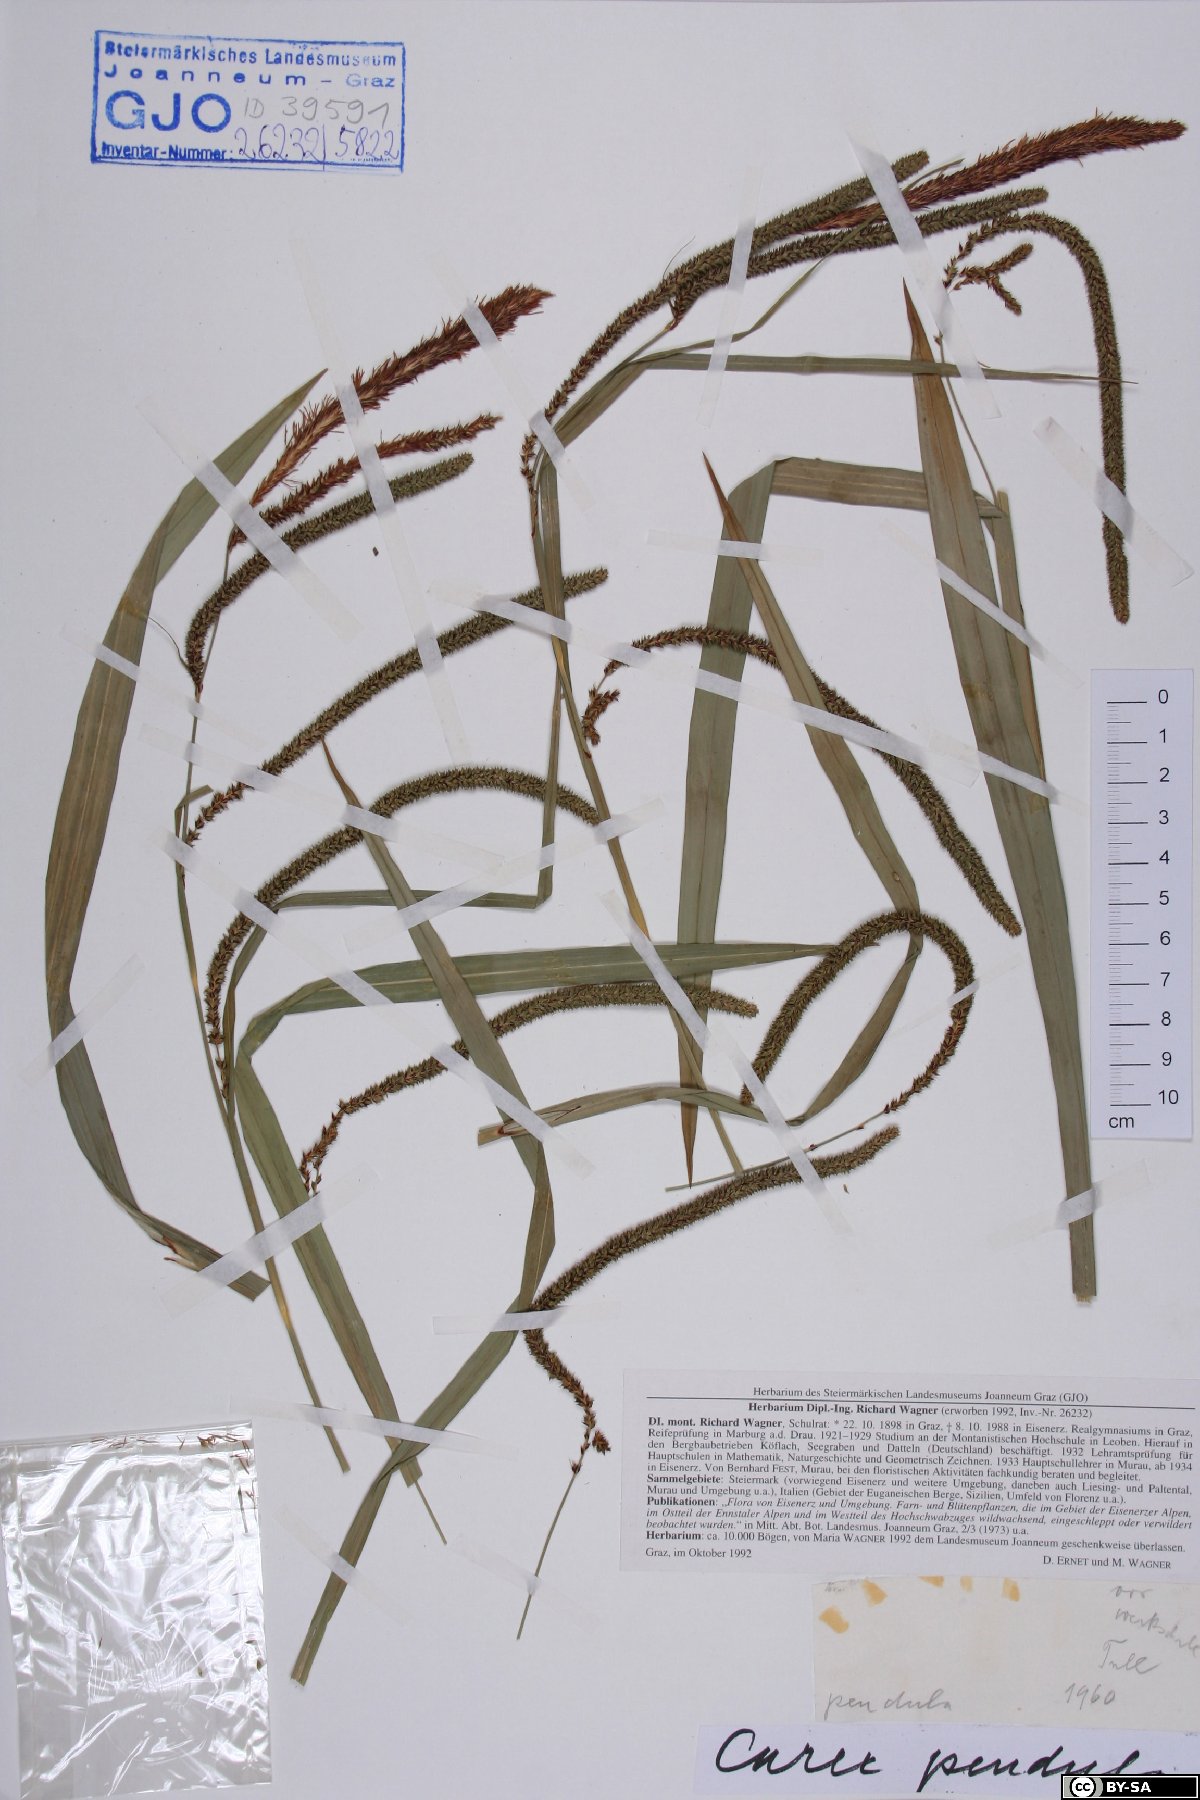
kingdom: Plantae
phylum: Tracheophyta
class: Liliopsida
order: Poales
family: Cyperaceae
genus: Carex
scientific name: Carex pendula
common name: Pendulous sedge
